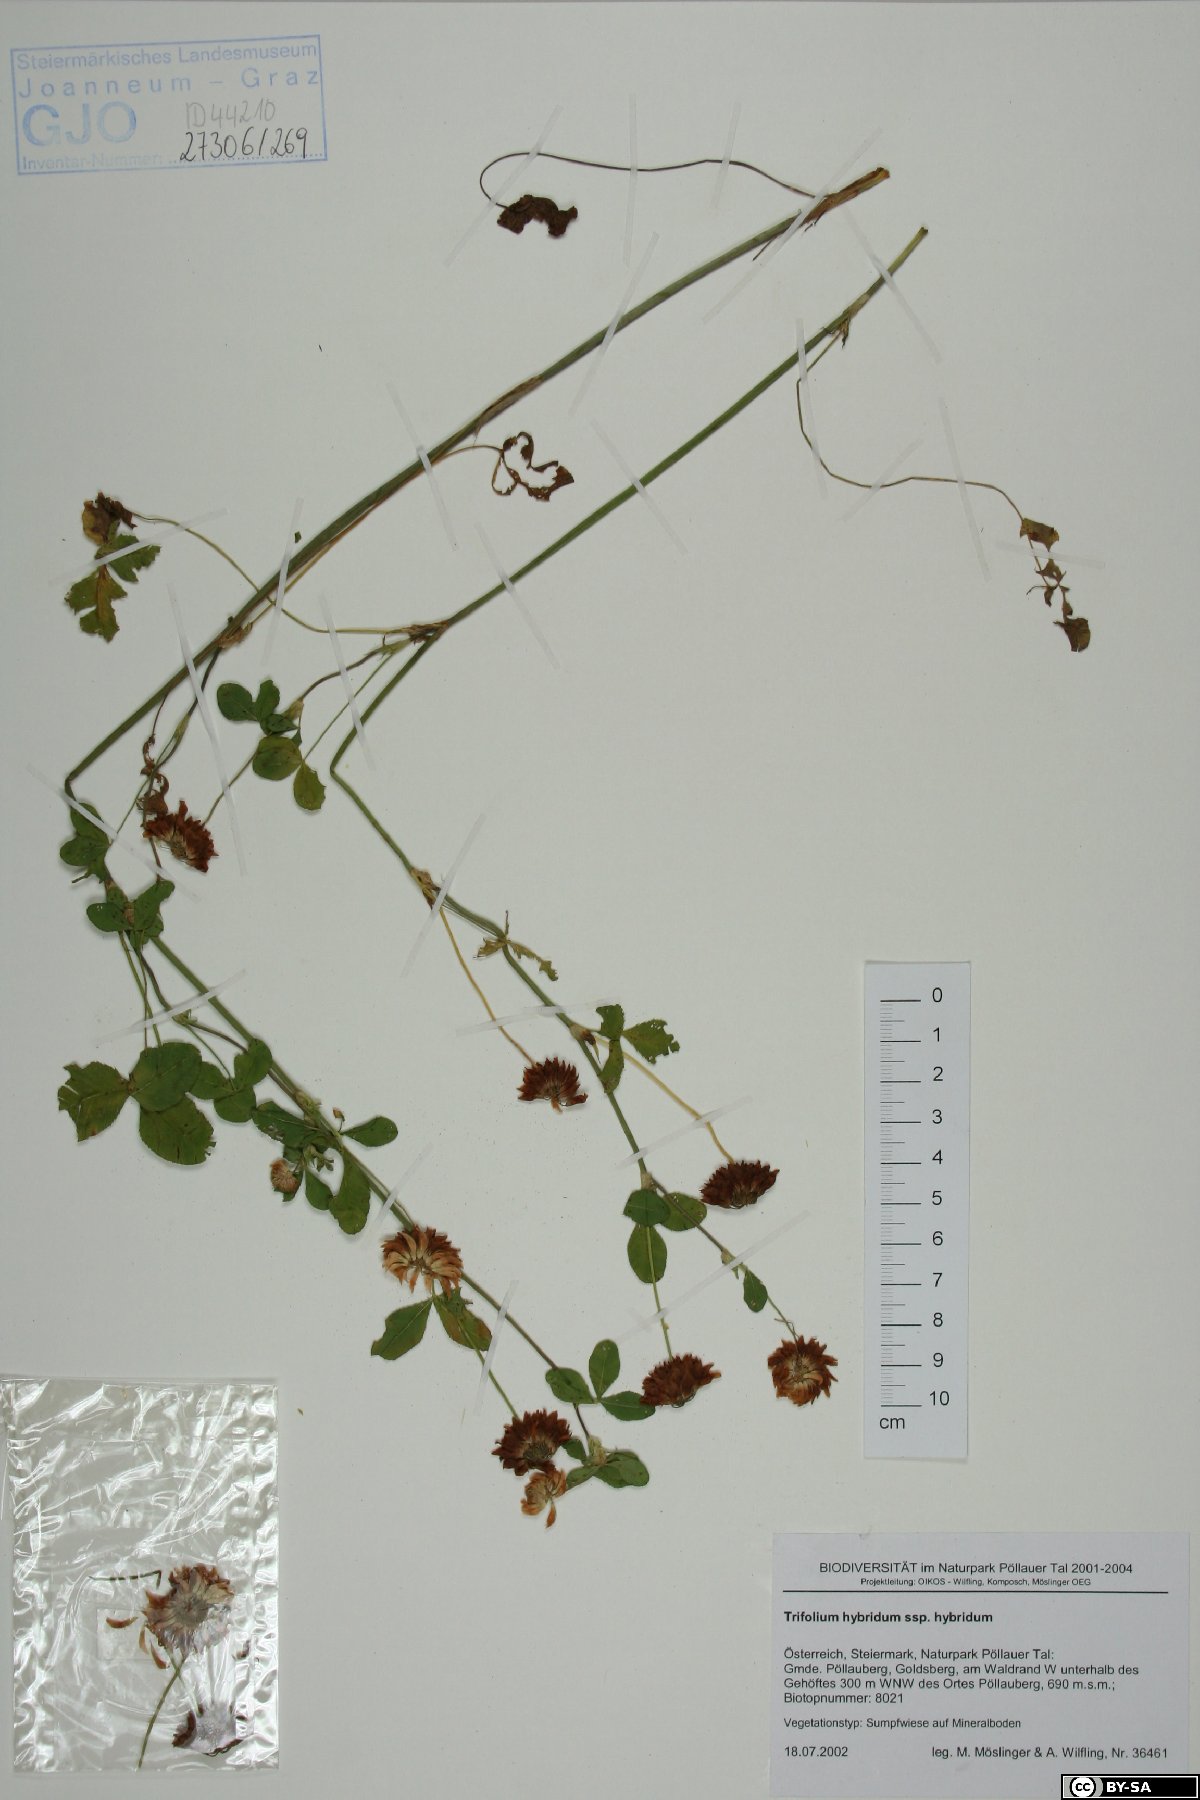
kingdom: Plantae
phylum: Tracheophyta
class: Magnoliopsida
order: Fabales
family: Fabaceae
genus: Trifolium
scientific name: Trifolium hybridum
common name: Alsike clover
